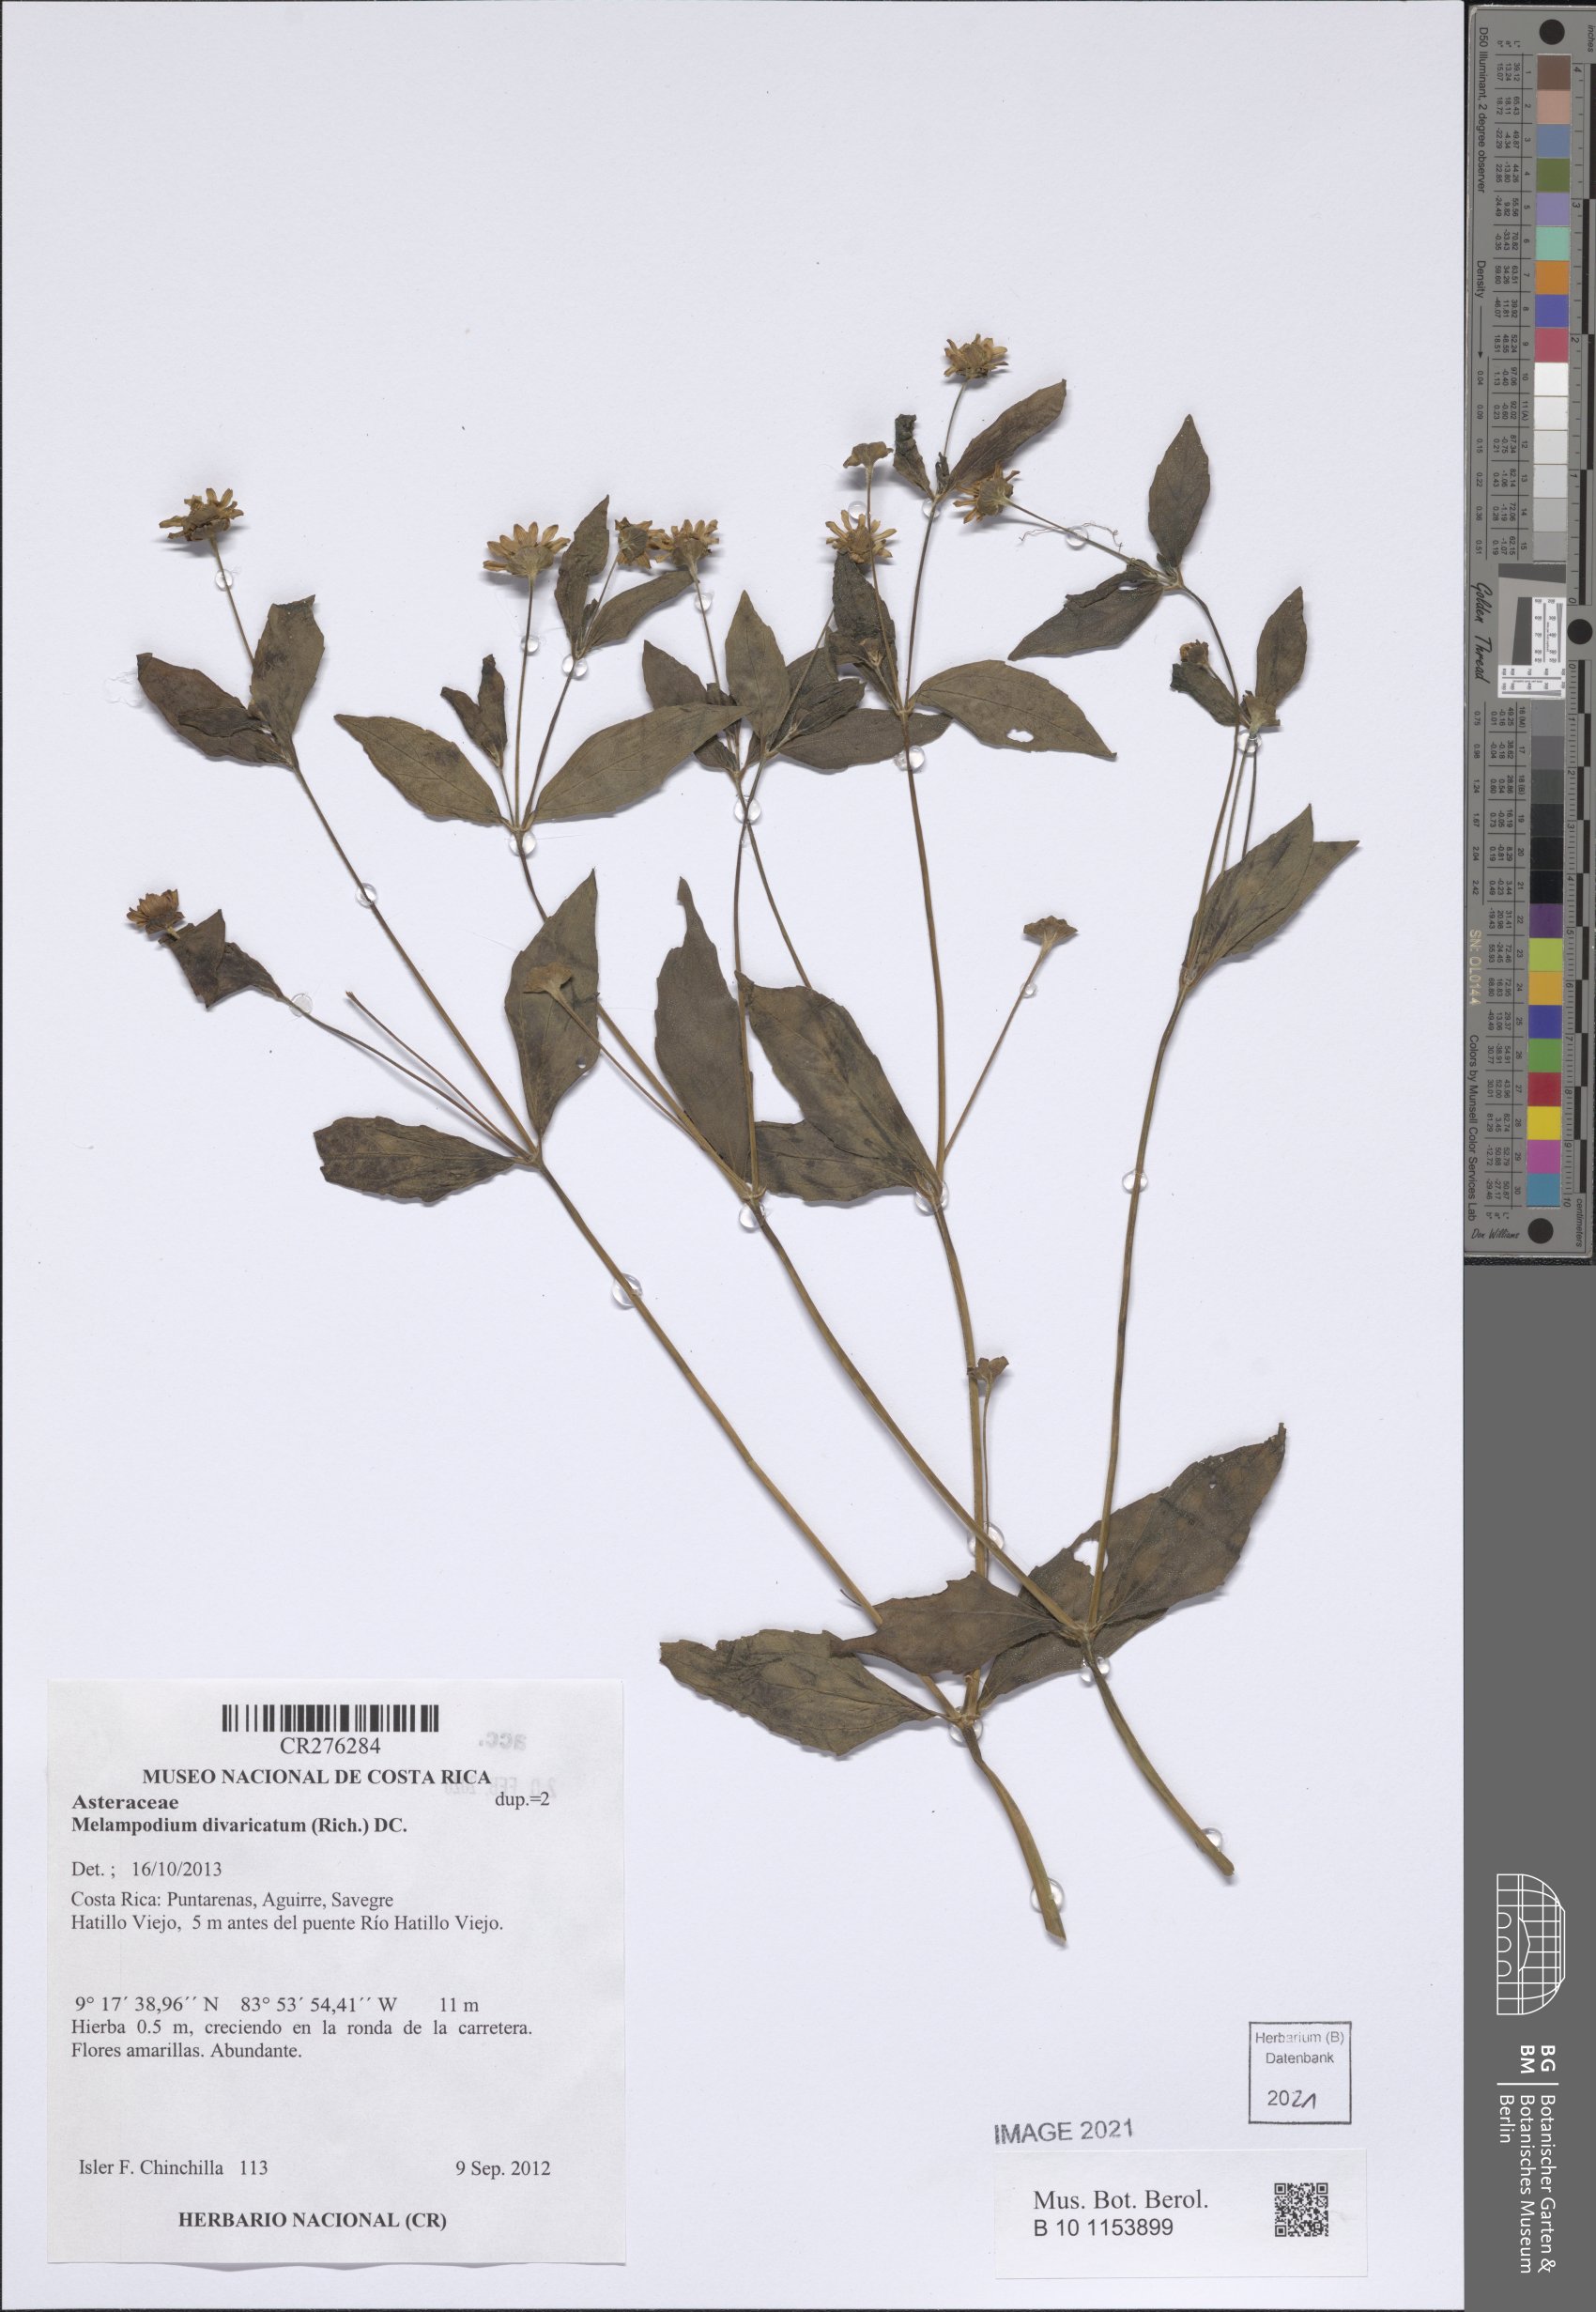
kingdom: Plantae
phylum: Tracheophyta
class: Magnoliopsida
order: Asterales
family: Asteraceae
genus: Melampodium
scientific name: Melampodium divaricatum
